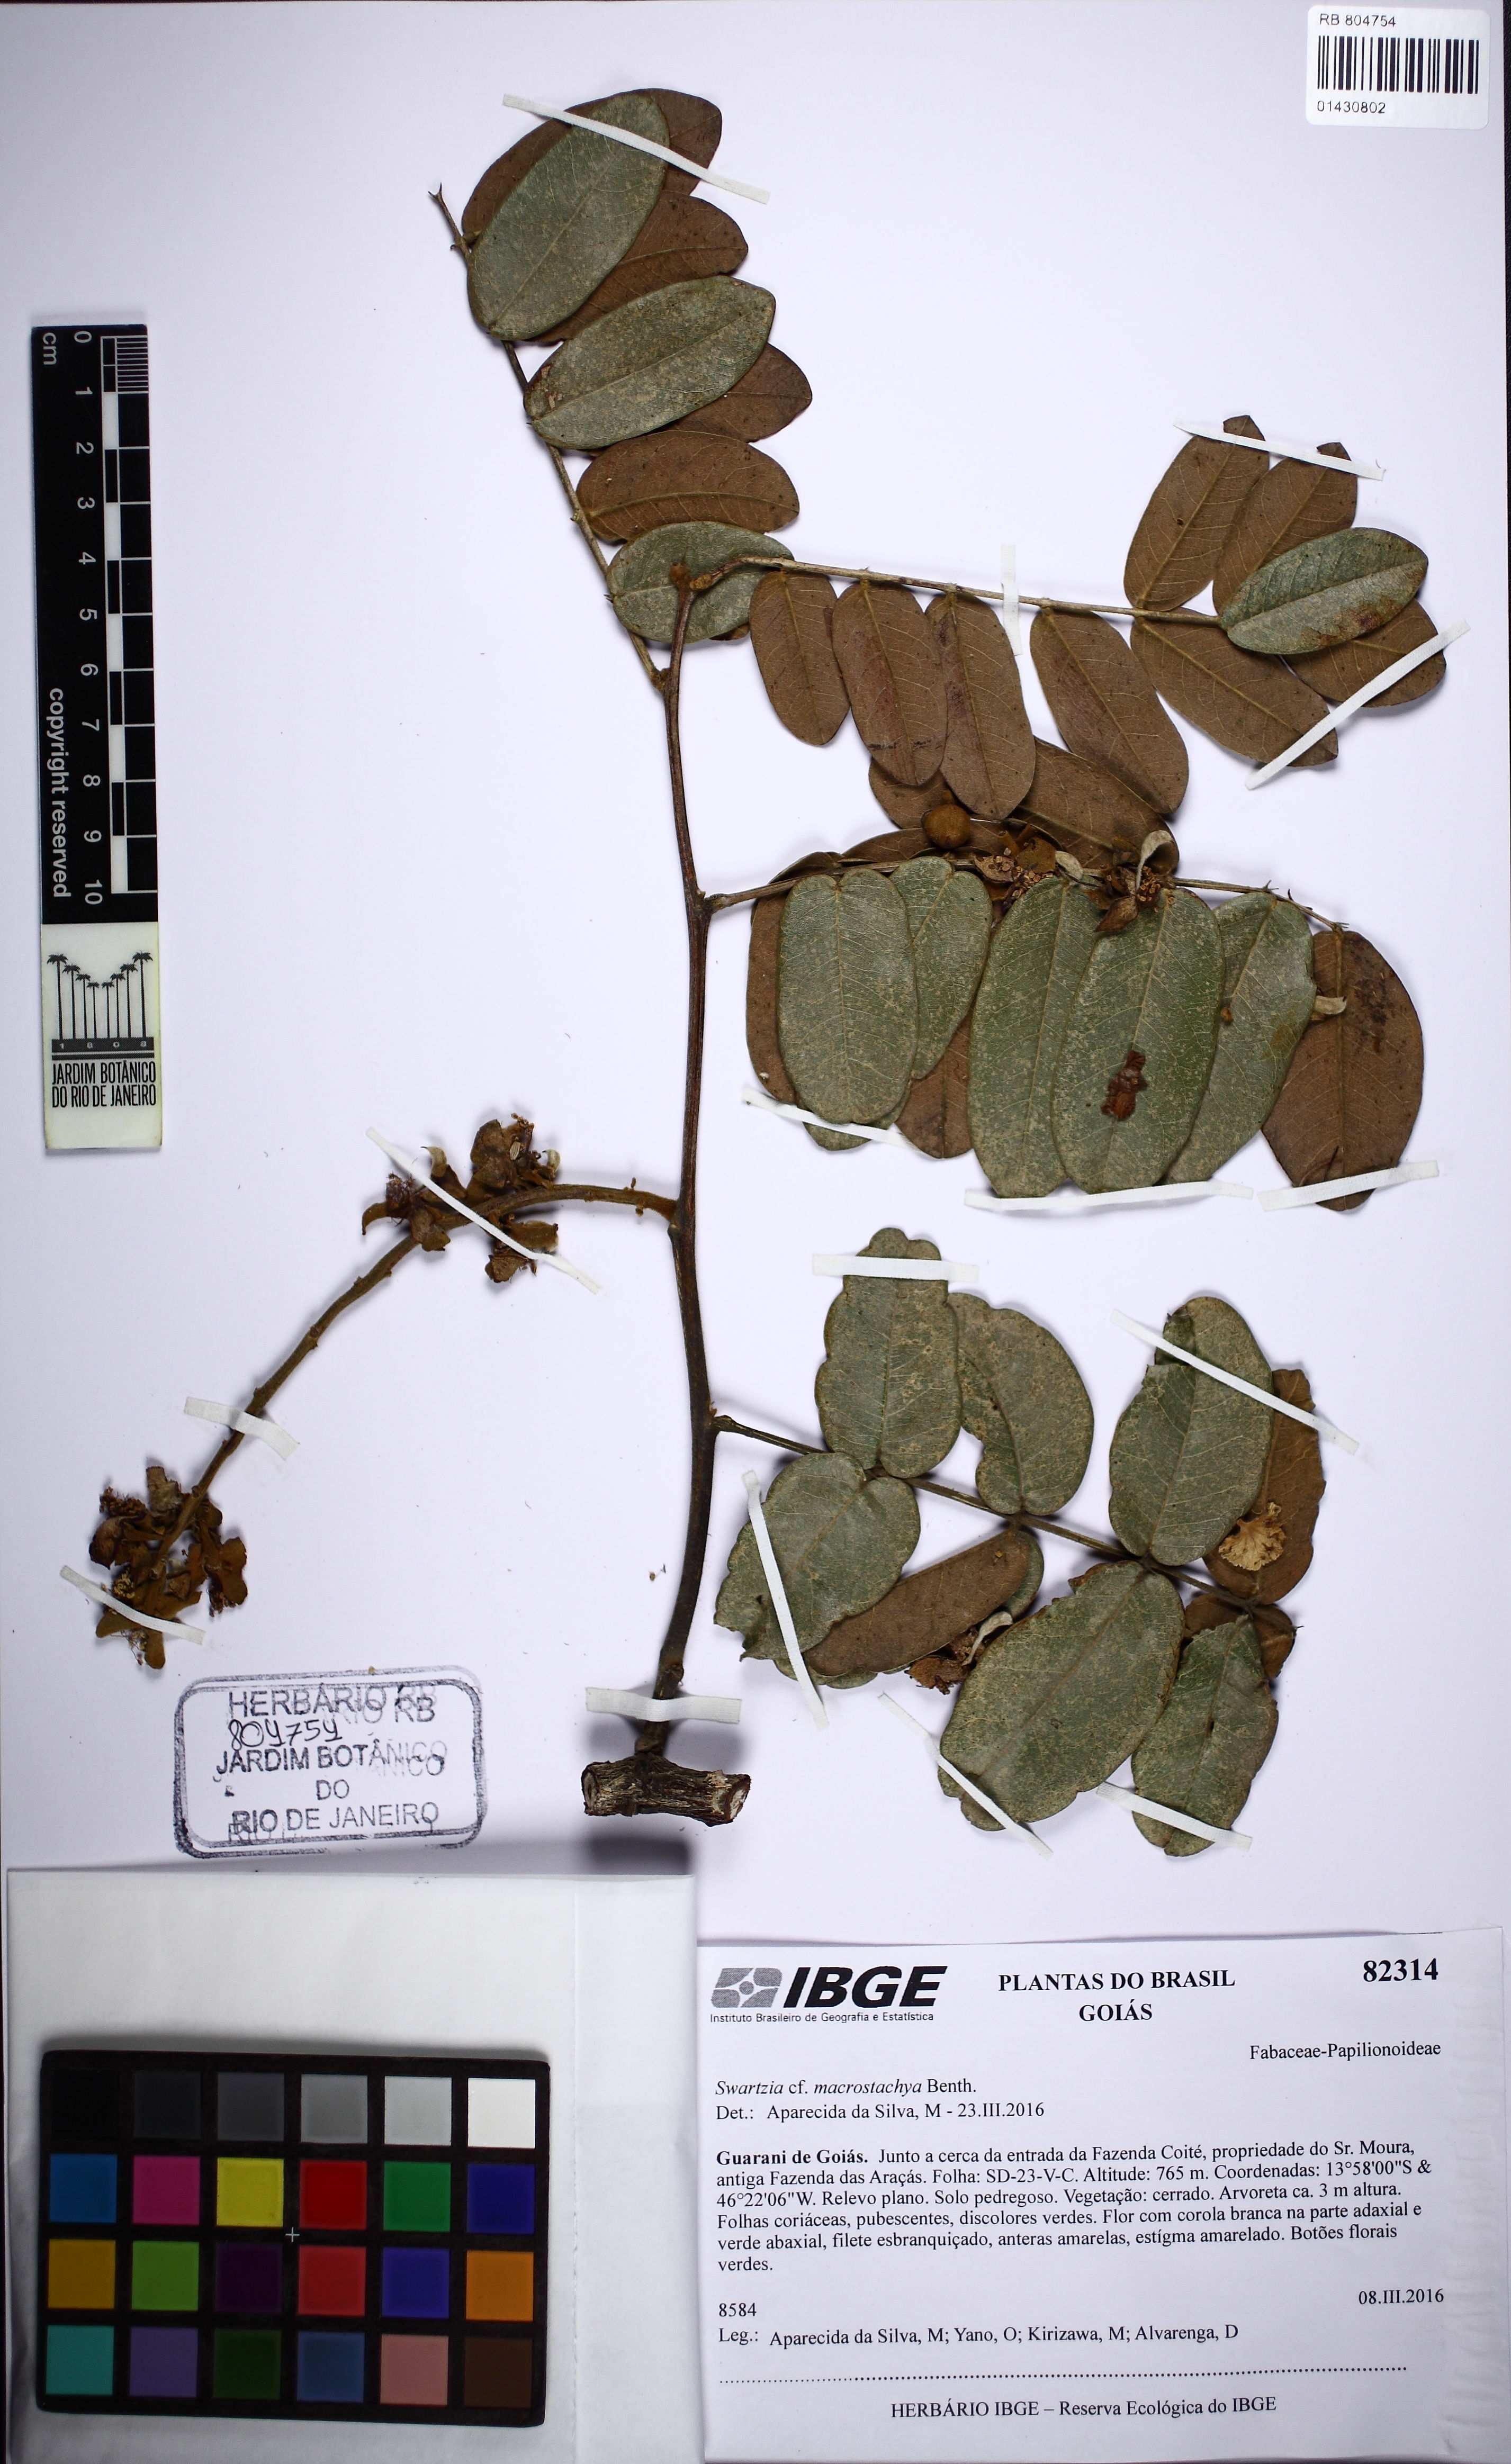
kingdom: Plantae
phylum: Tracheophyta
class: Magnoliopsida
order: Fabales
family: Fabaceae
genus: Swartzia
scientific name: Swartzia macrostachya
